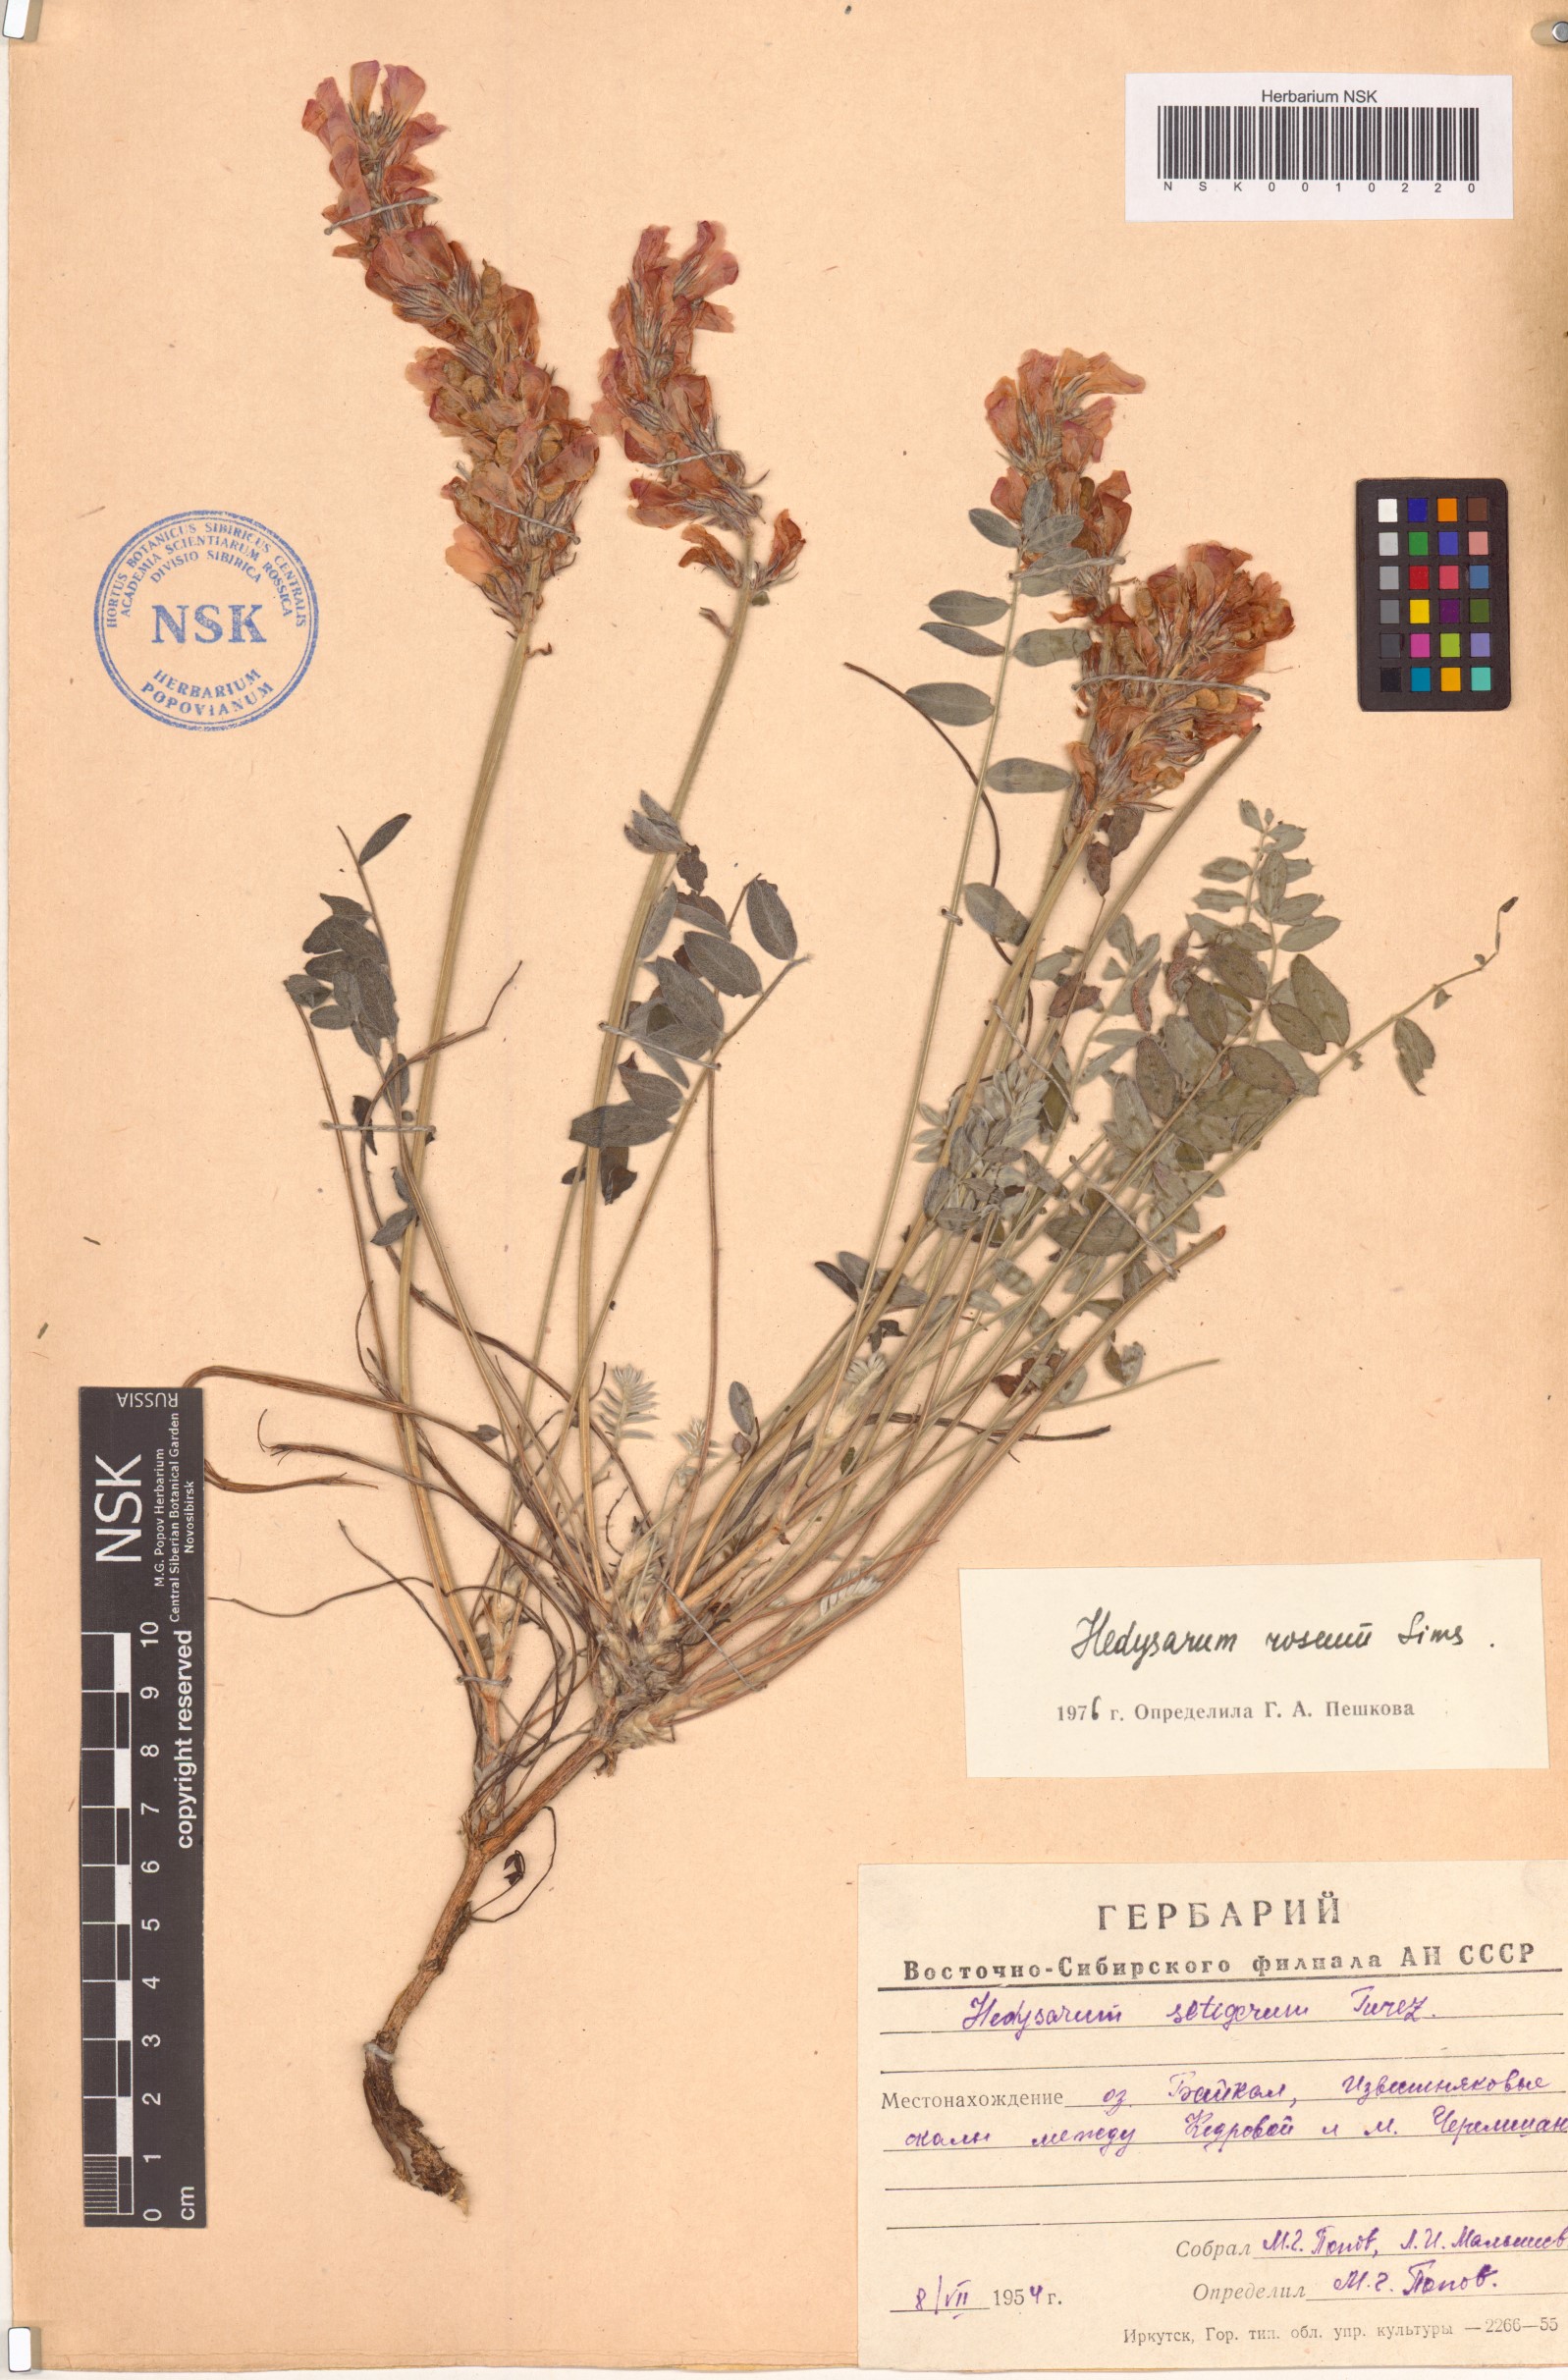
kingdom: Plantae
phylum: Tracheophyta
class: Magnoliopsida
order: Fabales
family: Fabaceae
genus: Hedysarum
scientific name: Hedysarum roseum
